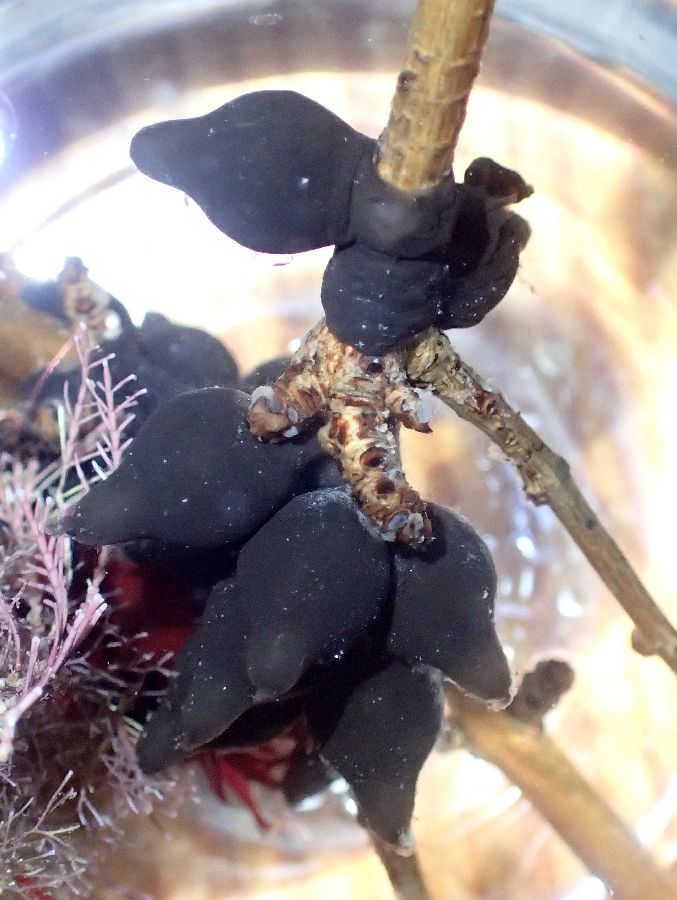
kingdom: Animalia
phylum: Mollusca
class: Cephalopoda
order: Sepiida
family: Sepiidae
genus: Sepia
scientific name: Sepia officinalis
